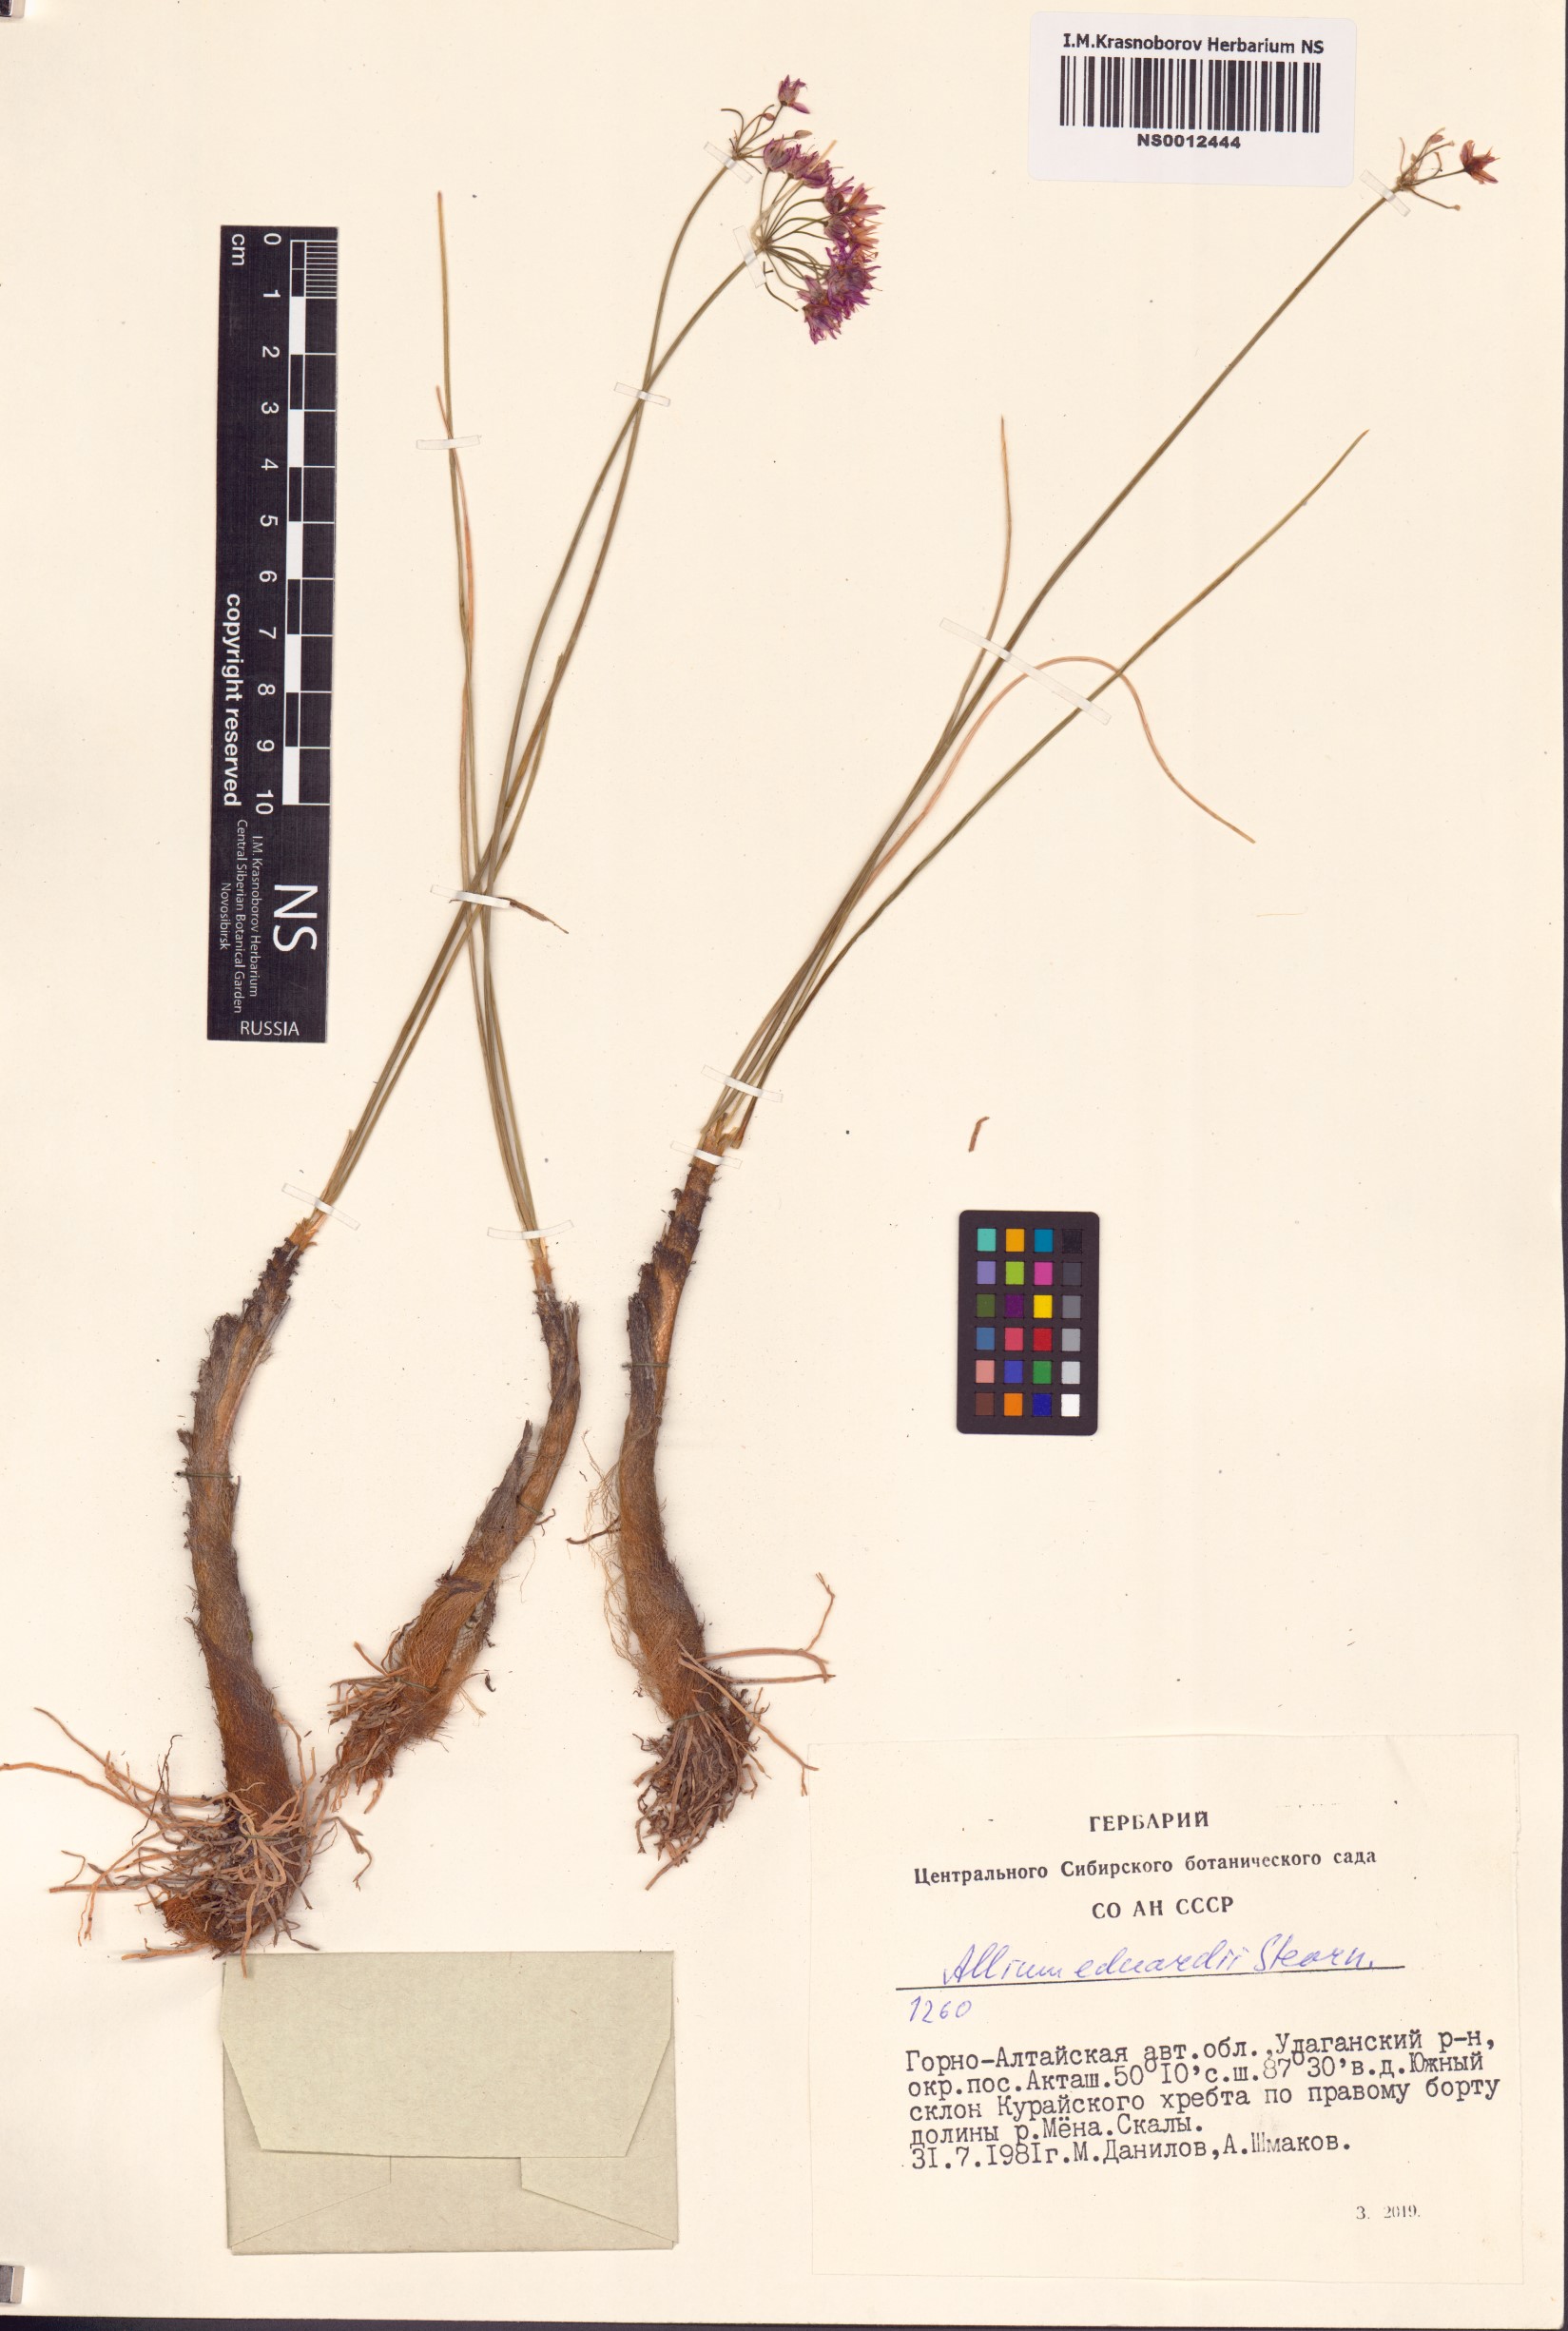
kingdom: Plantae
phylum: Tracheophyta
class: Liliopsida
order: Asparagales
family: Amaryllidaceae
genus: Allium
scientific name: Allium eduardi
